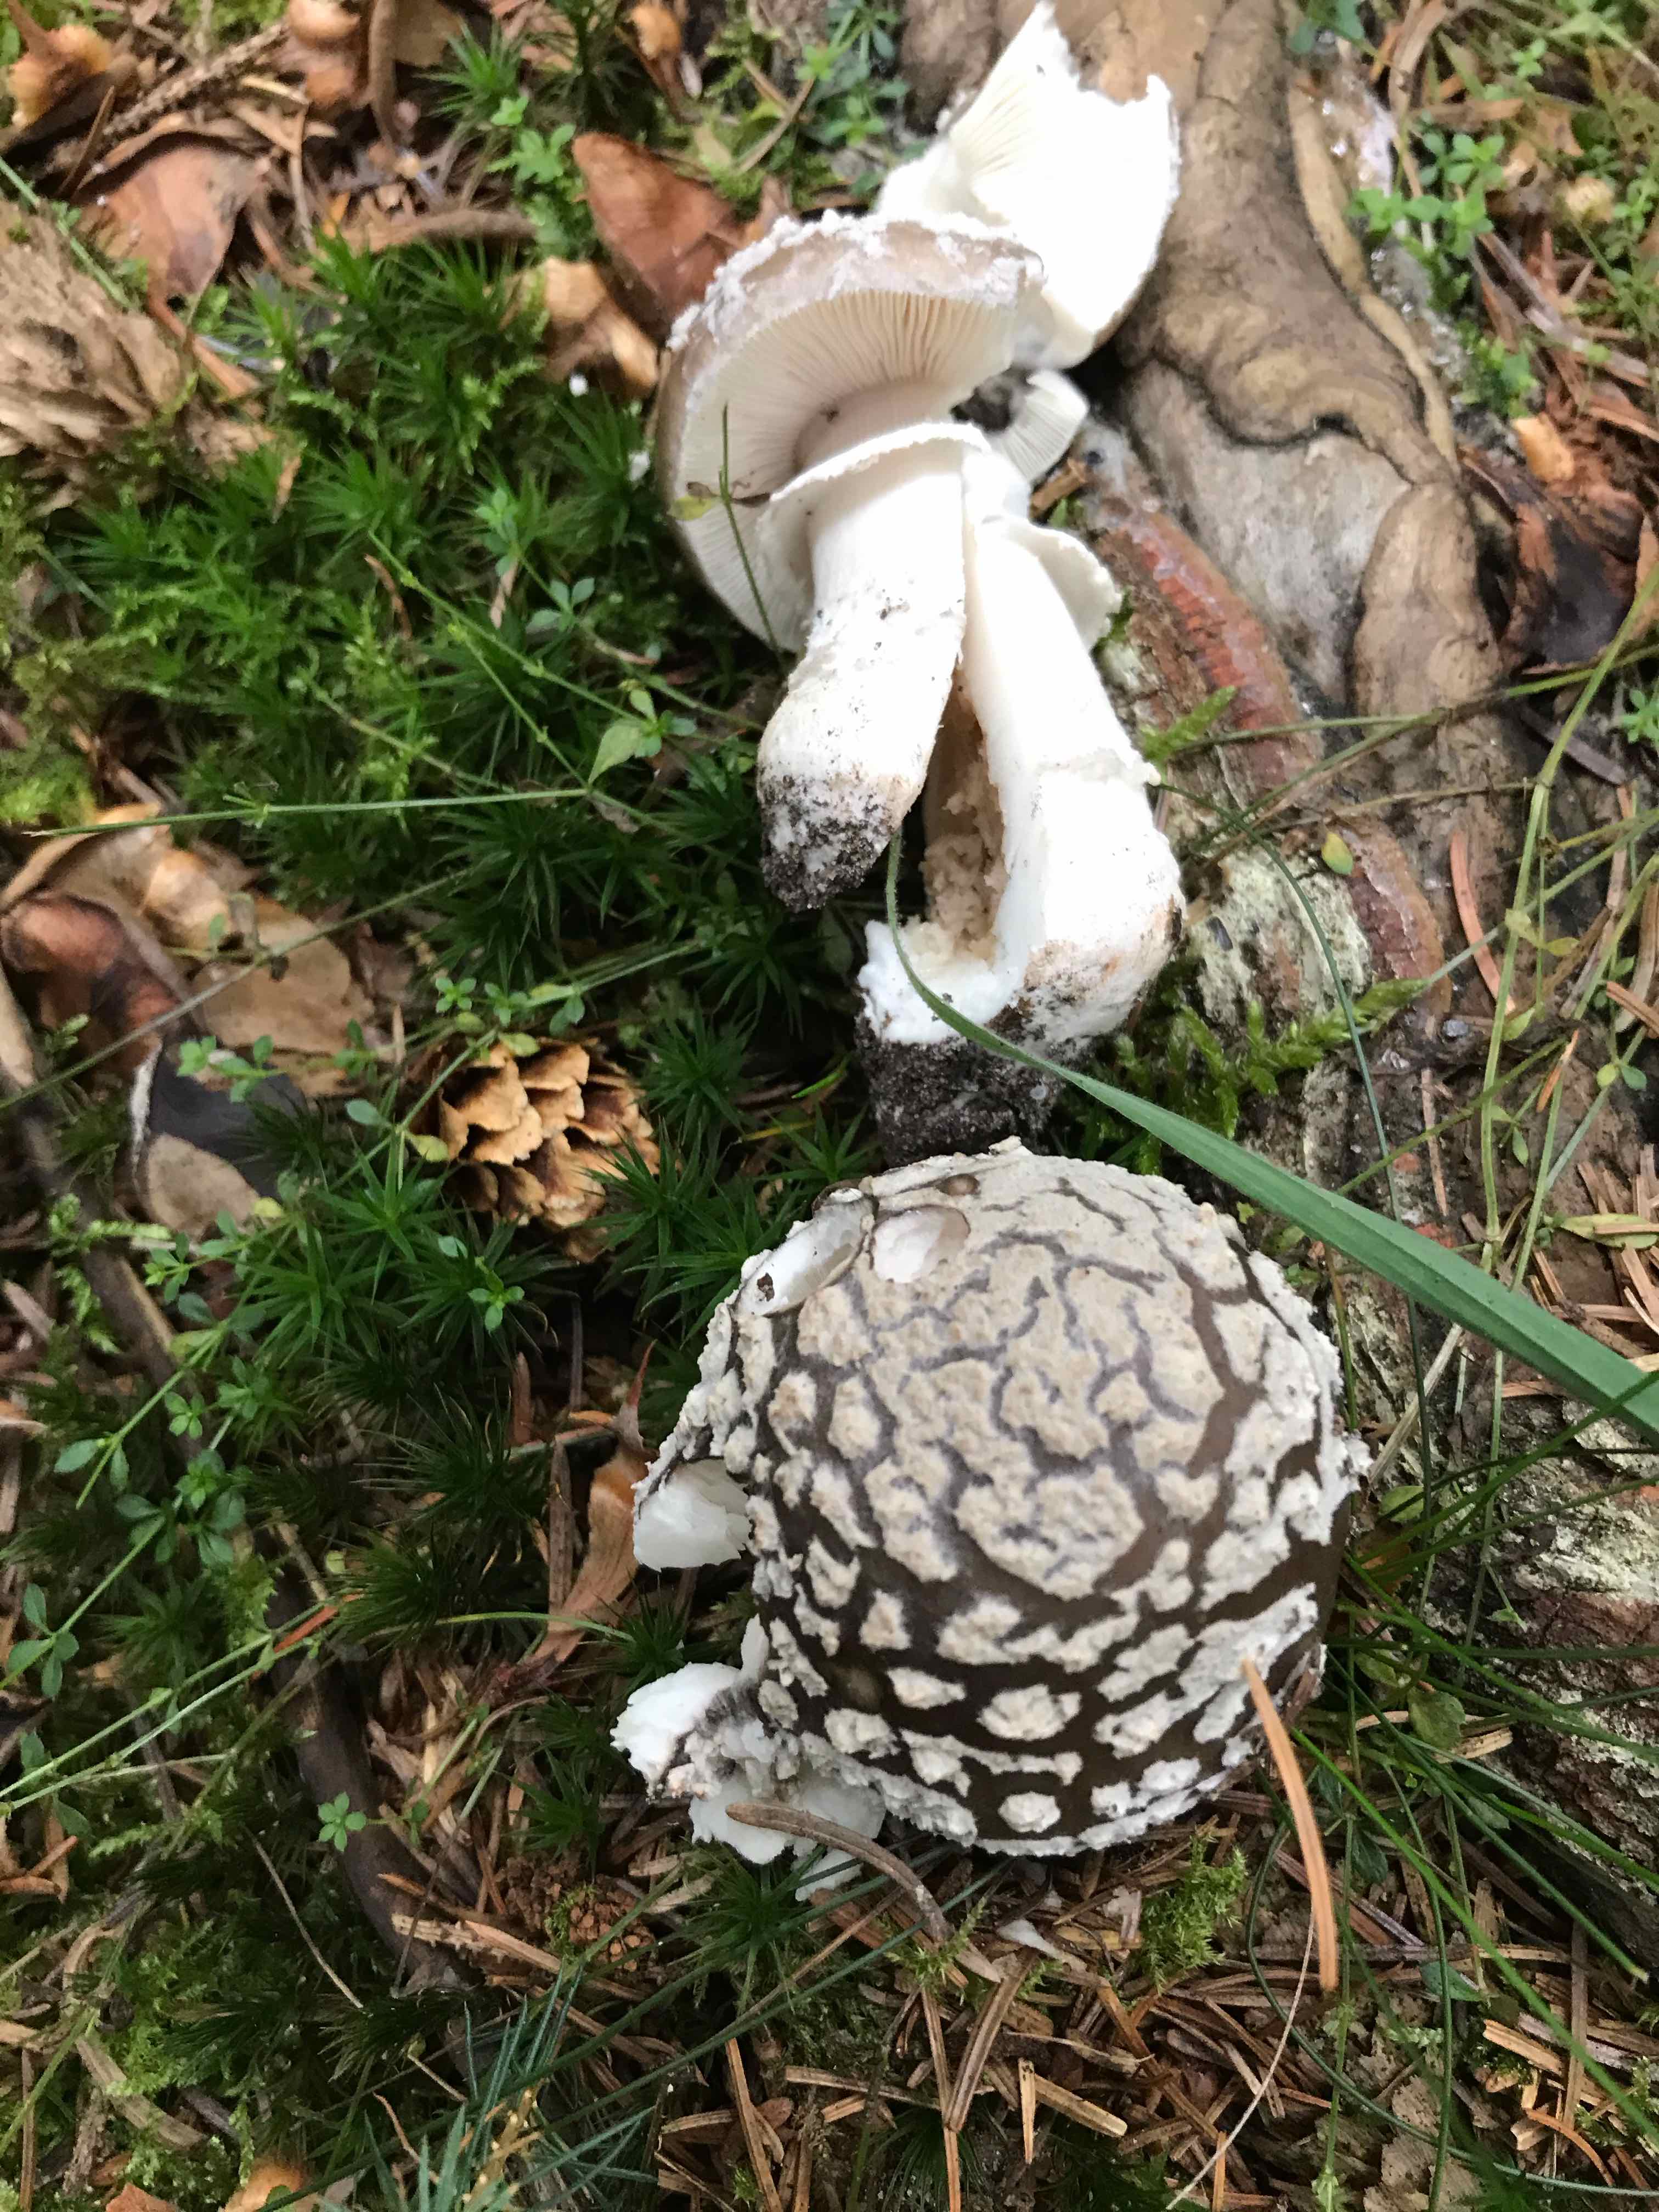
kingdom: Fungi
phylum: Basidiomycota
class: Agaricomycetes
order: Agaricales
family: Amanitaceae
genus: Amanita
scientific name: Amanita
